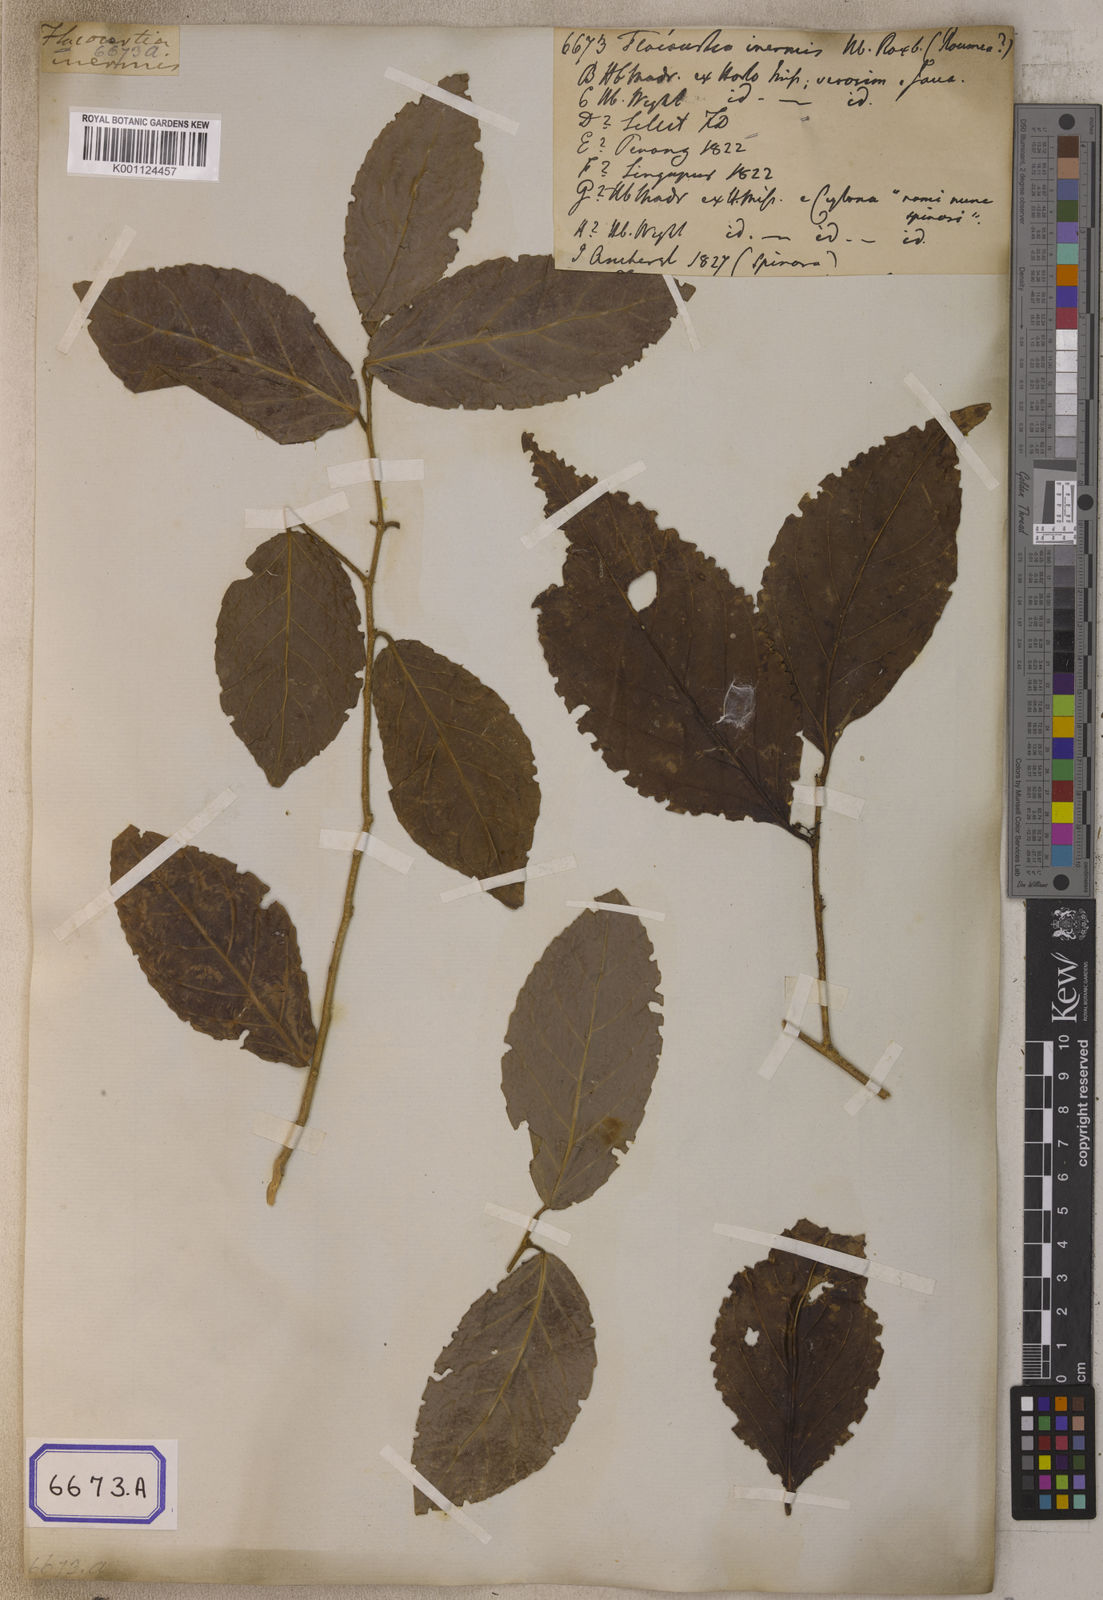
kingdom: Plantae
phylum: Tracheophyta
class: Magnoliopsida
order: Malpighiales
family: Salicaceae
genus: Flacourtia
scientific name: Flacourtia
